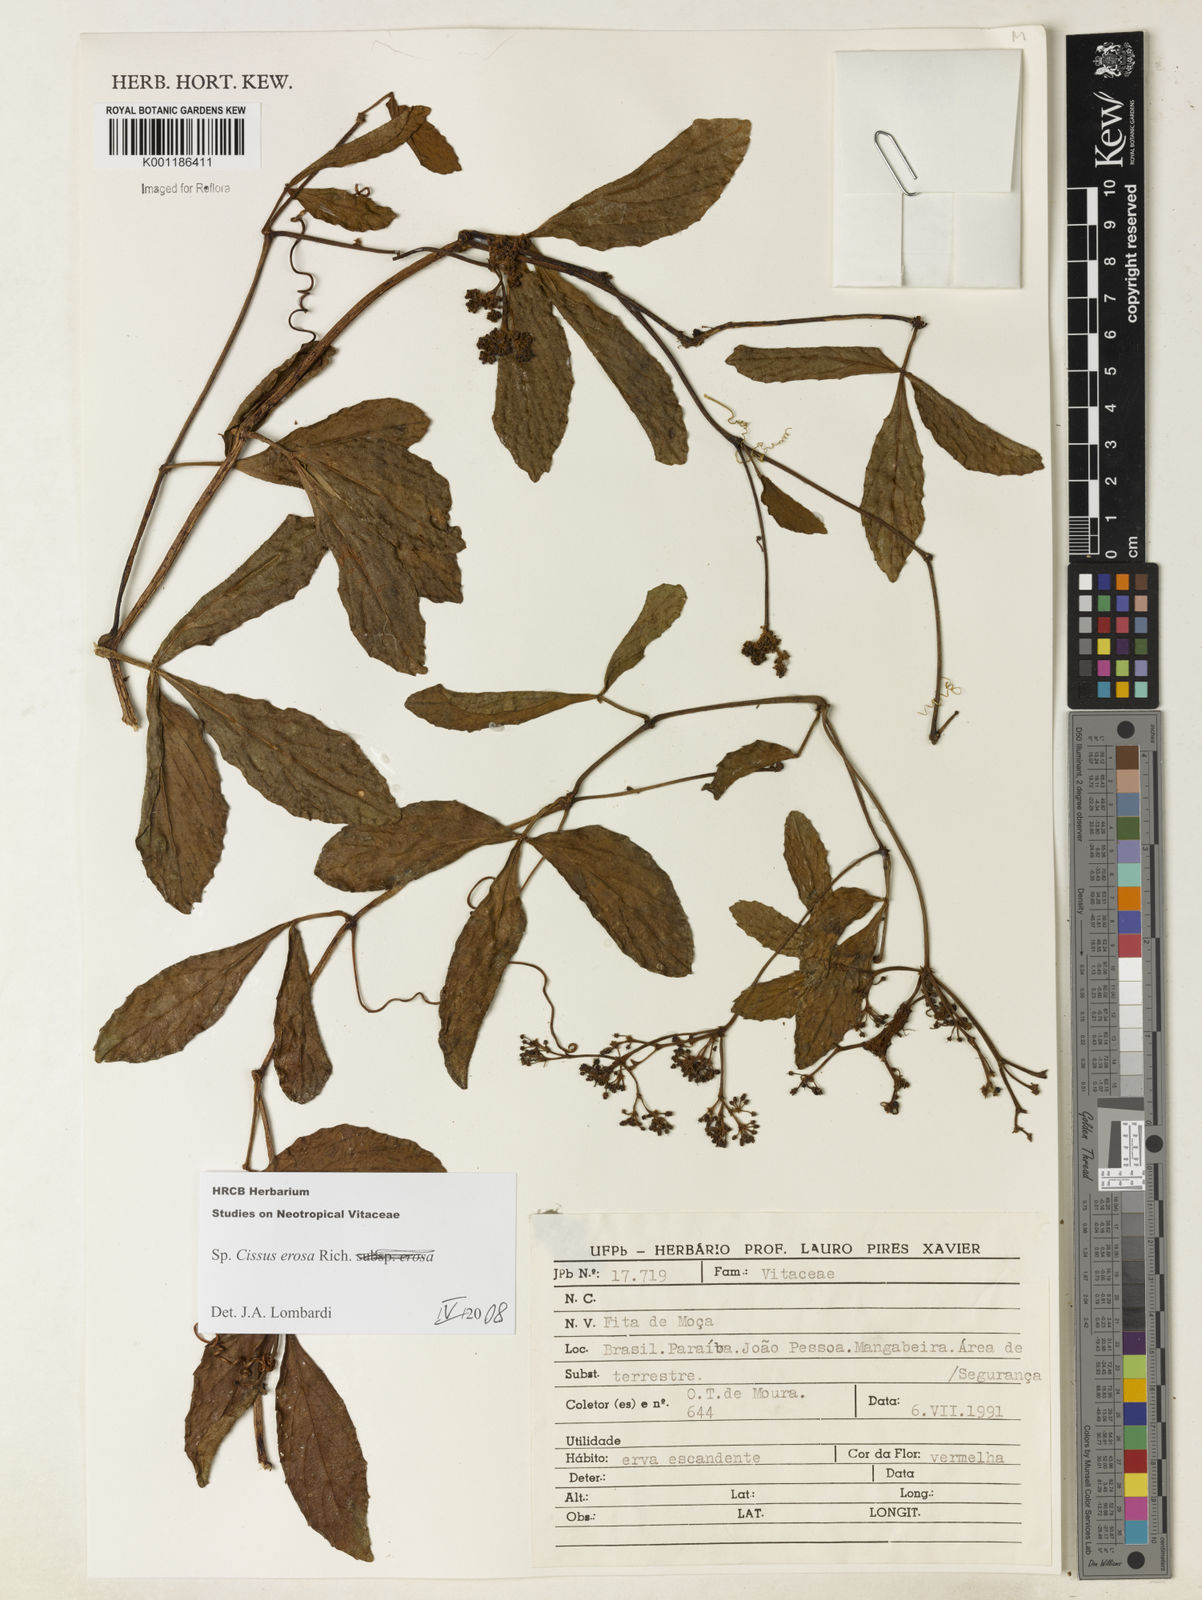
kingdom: Plantae
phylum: Tracheophyta
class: Magnoliopsida
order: Vitales
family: Vitaceae
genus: Cissus
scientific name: Cissus erosa
